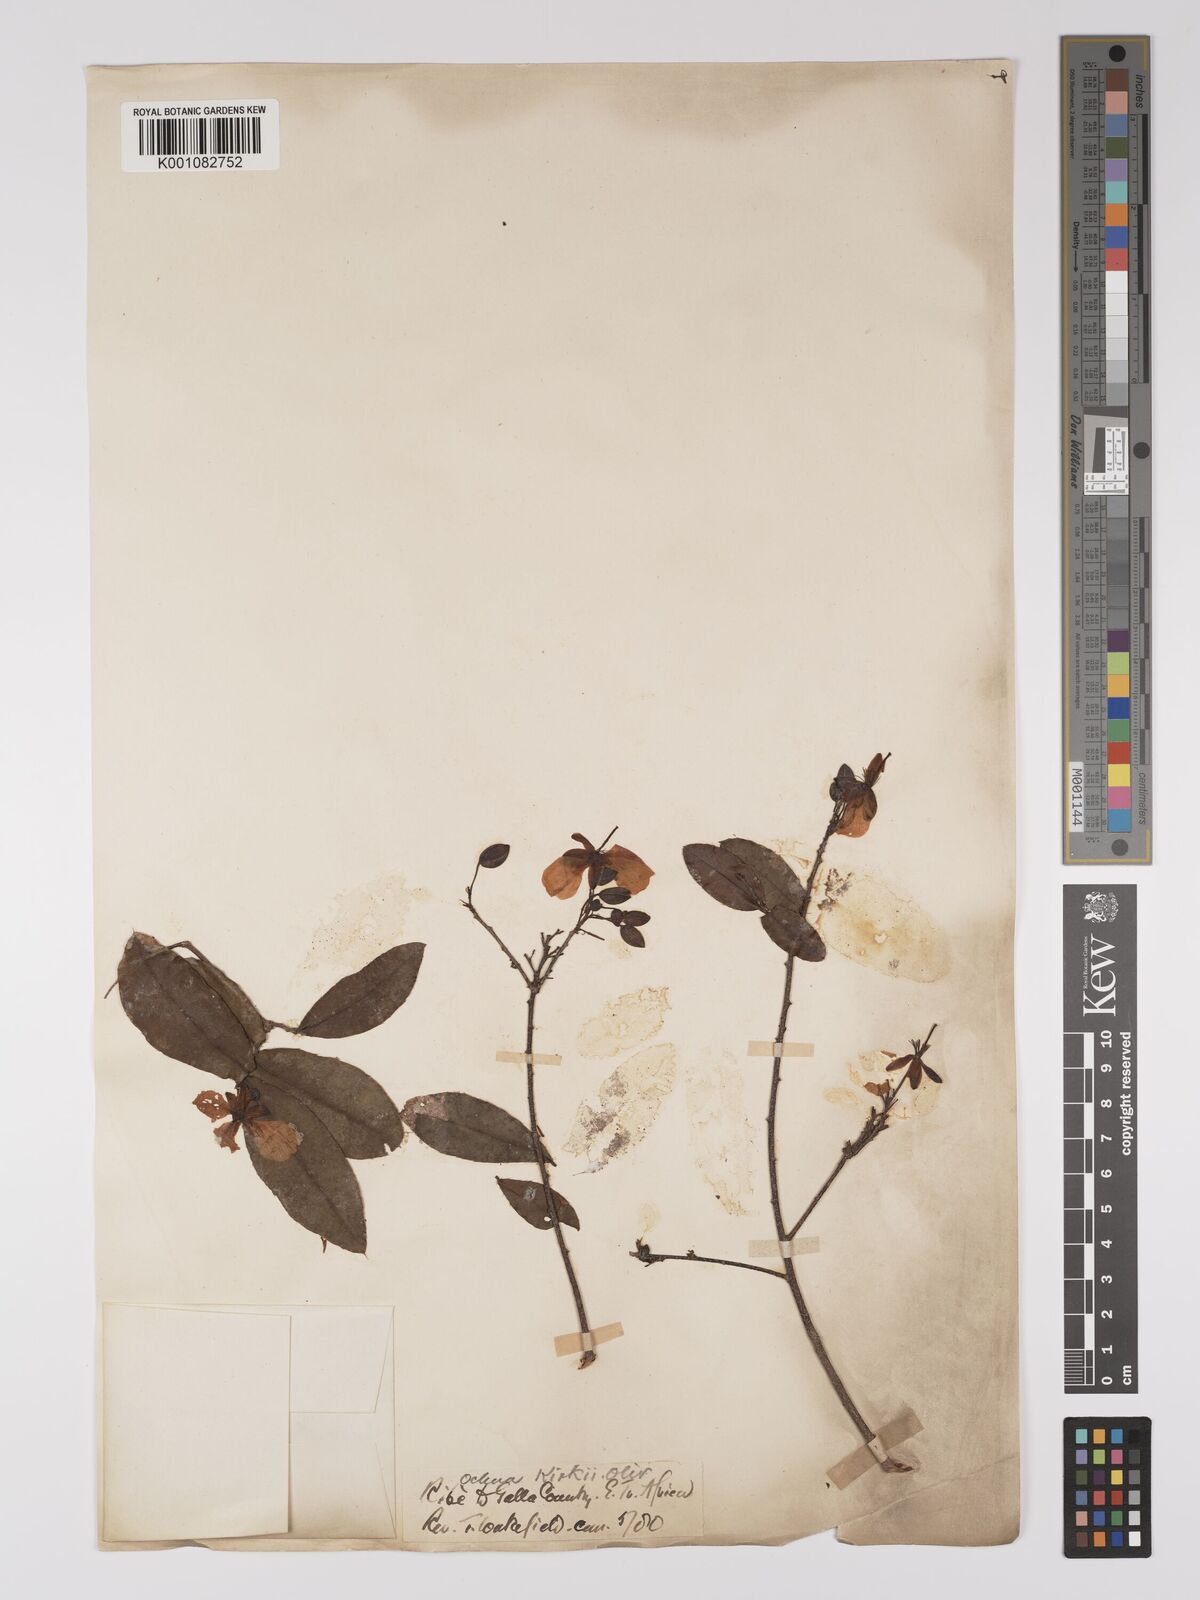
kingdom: Plantae
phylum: Tracheophyta
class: Magnoliopsida
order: Malpighiales
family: Ochnaceae
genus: Ochna
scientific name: Ochna thomasiana
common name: Thomas' bird's-eye bush
